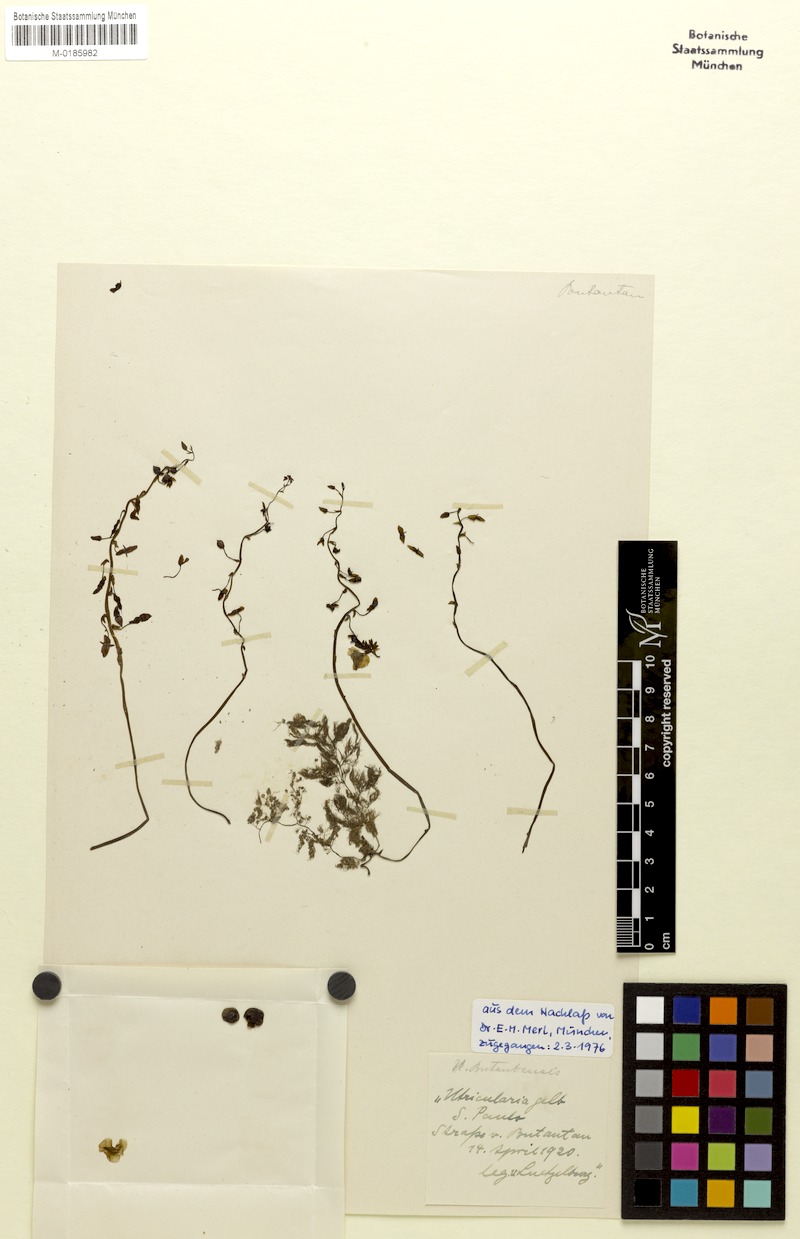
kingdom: Plantae
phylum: Tracheophyta
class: Magnoliopsida
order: Lamiales
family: Lentibulariaceae
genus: Utricularia
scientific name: Utricularia foliosa
